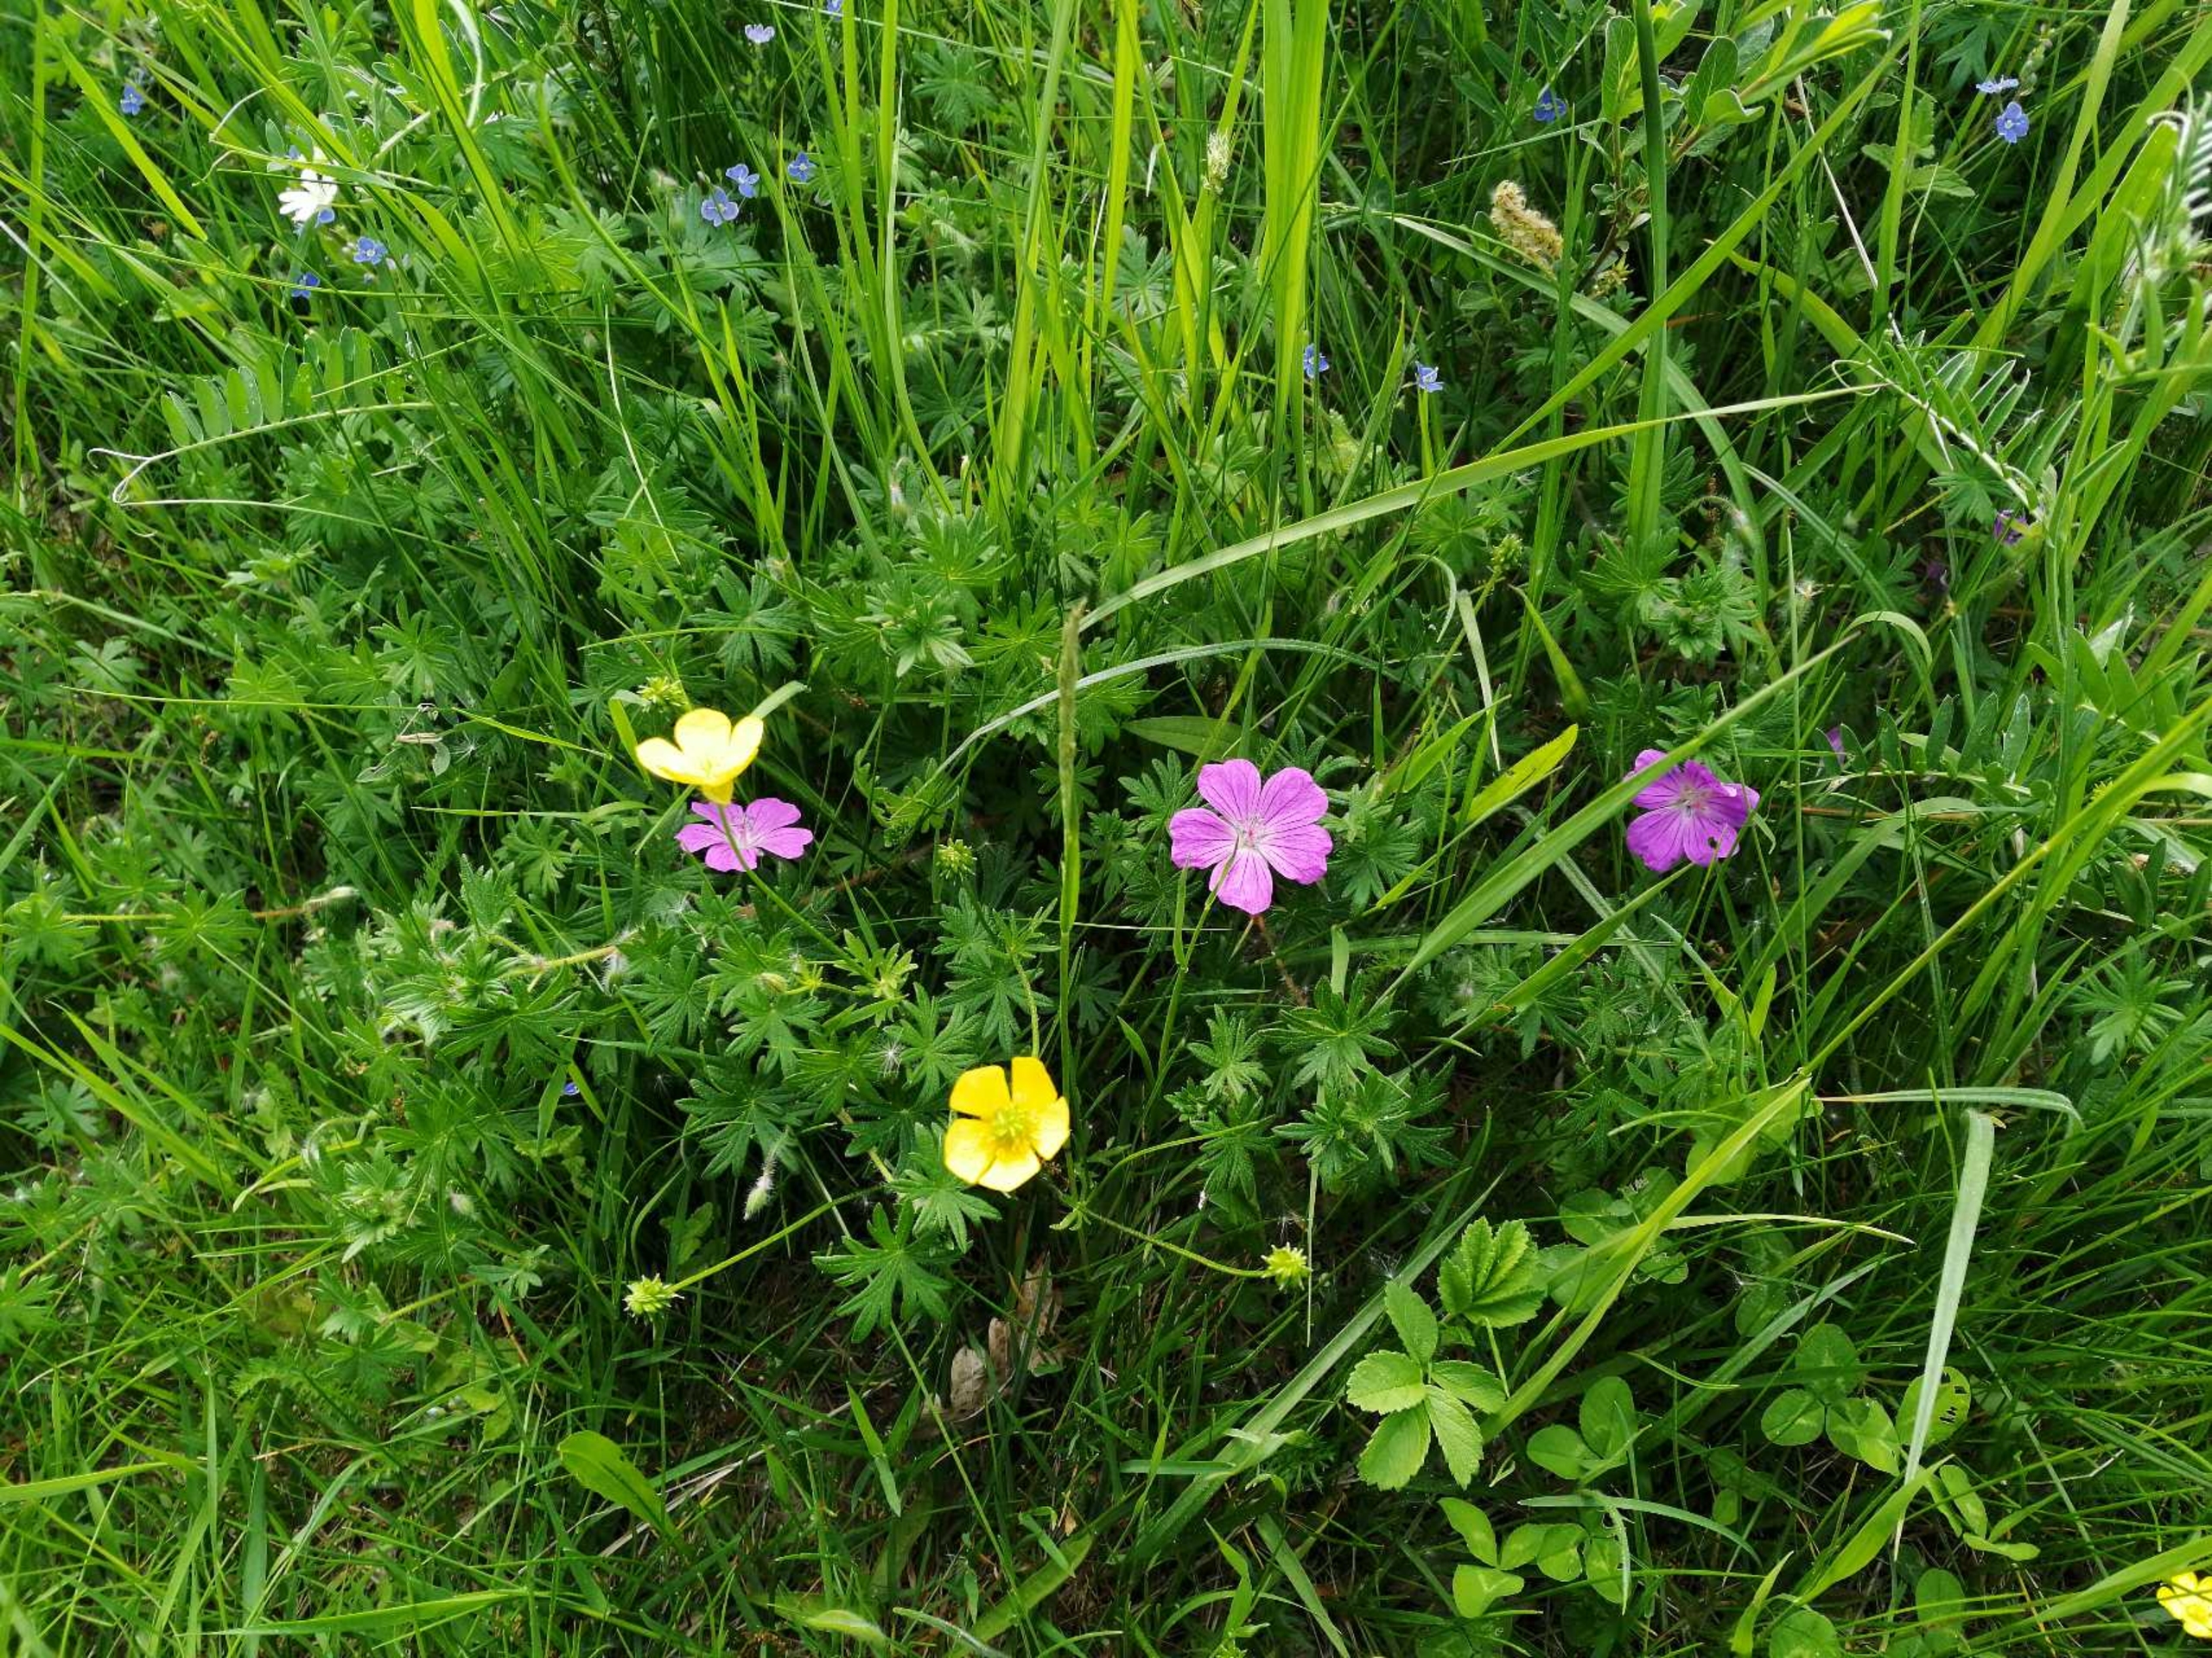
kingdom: Plantae
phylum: Tracheophyta
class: Magnoliopsida
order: Geraniales
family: Geraniaceae
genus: Geranium
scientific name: Geranium sanguineum
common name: Blodrød storkenæb
